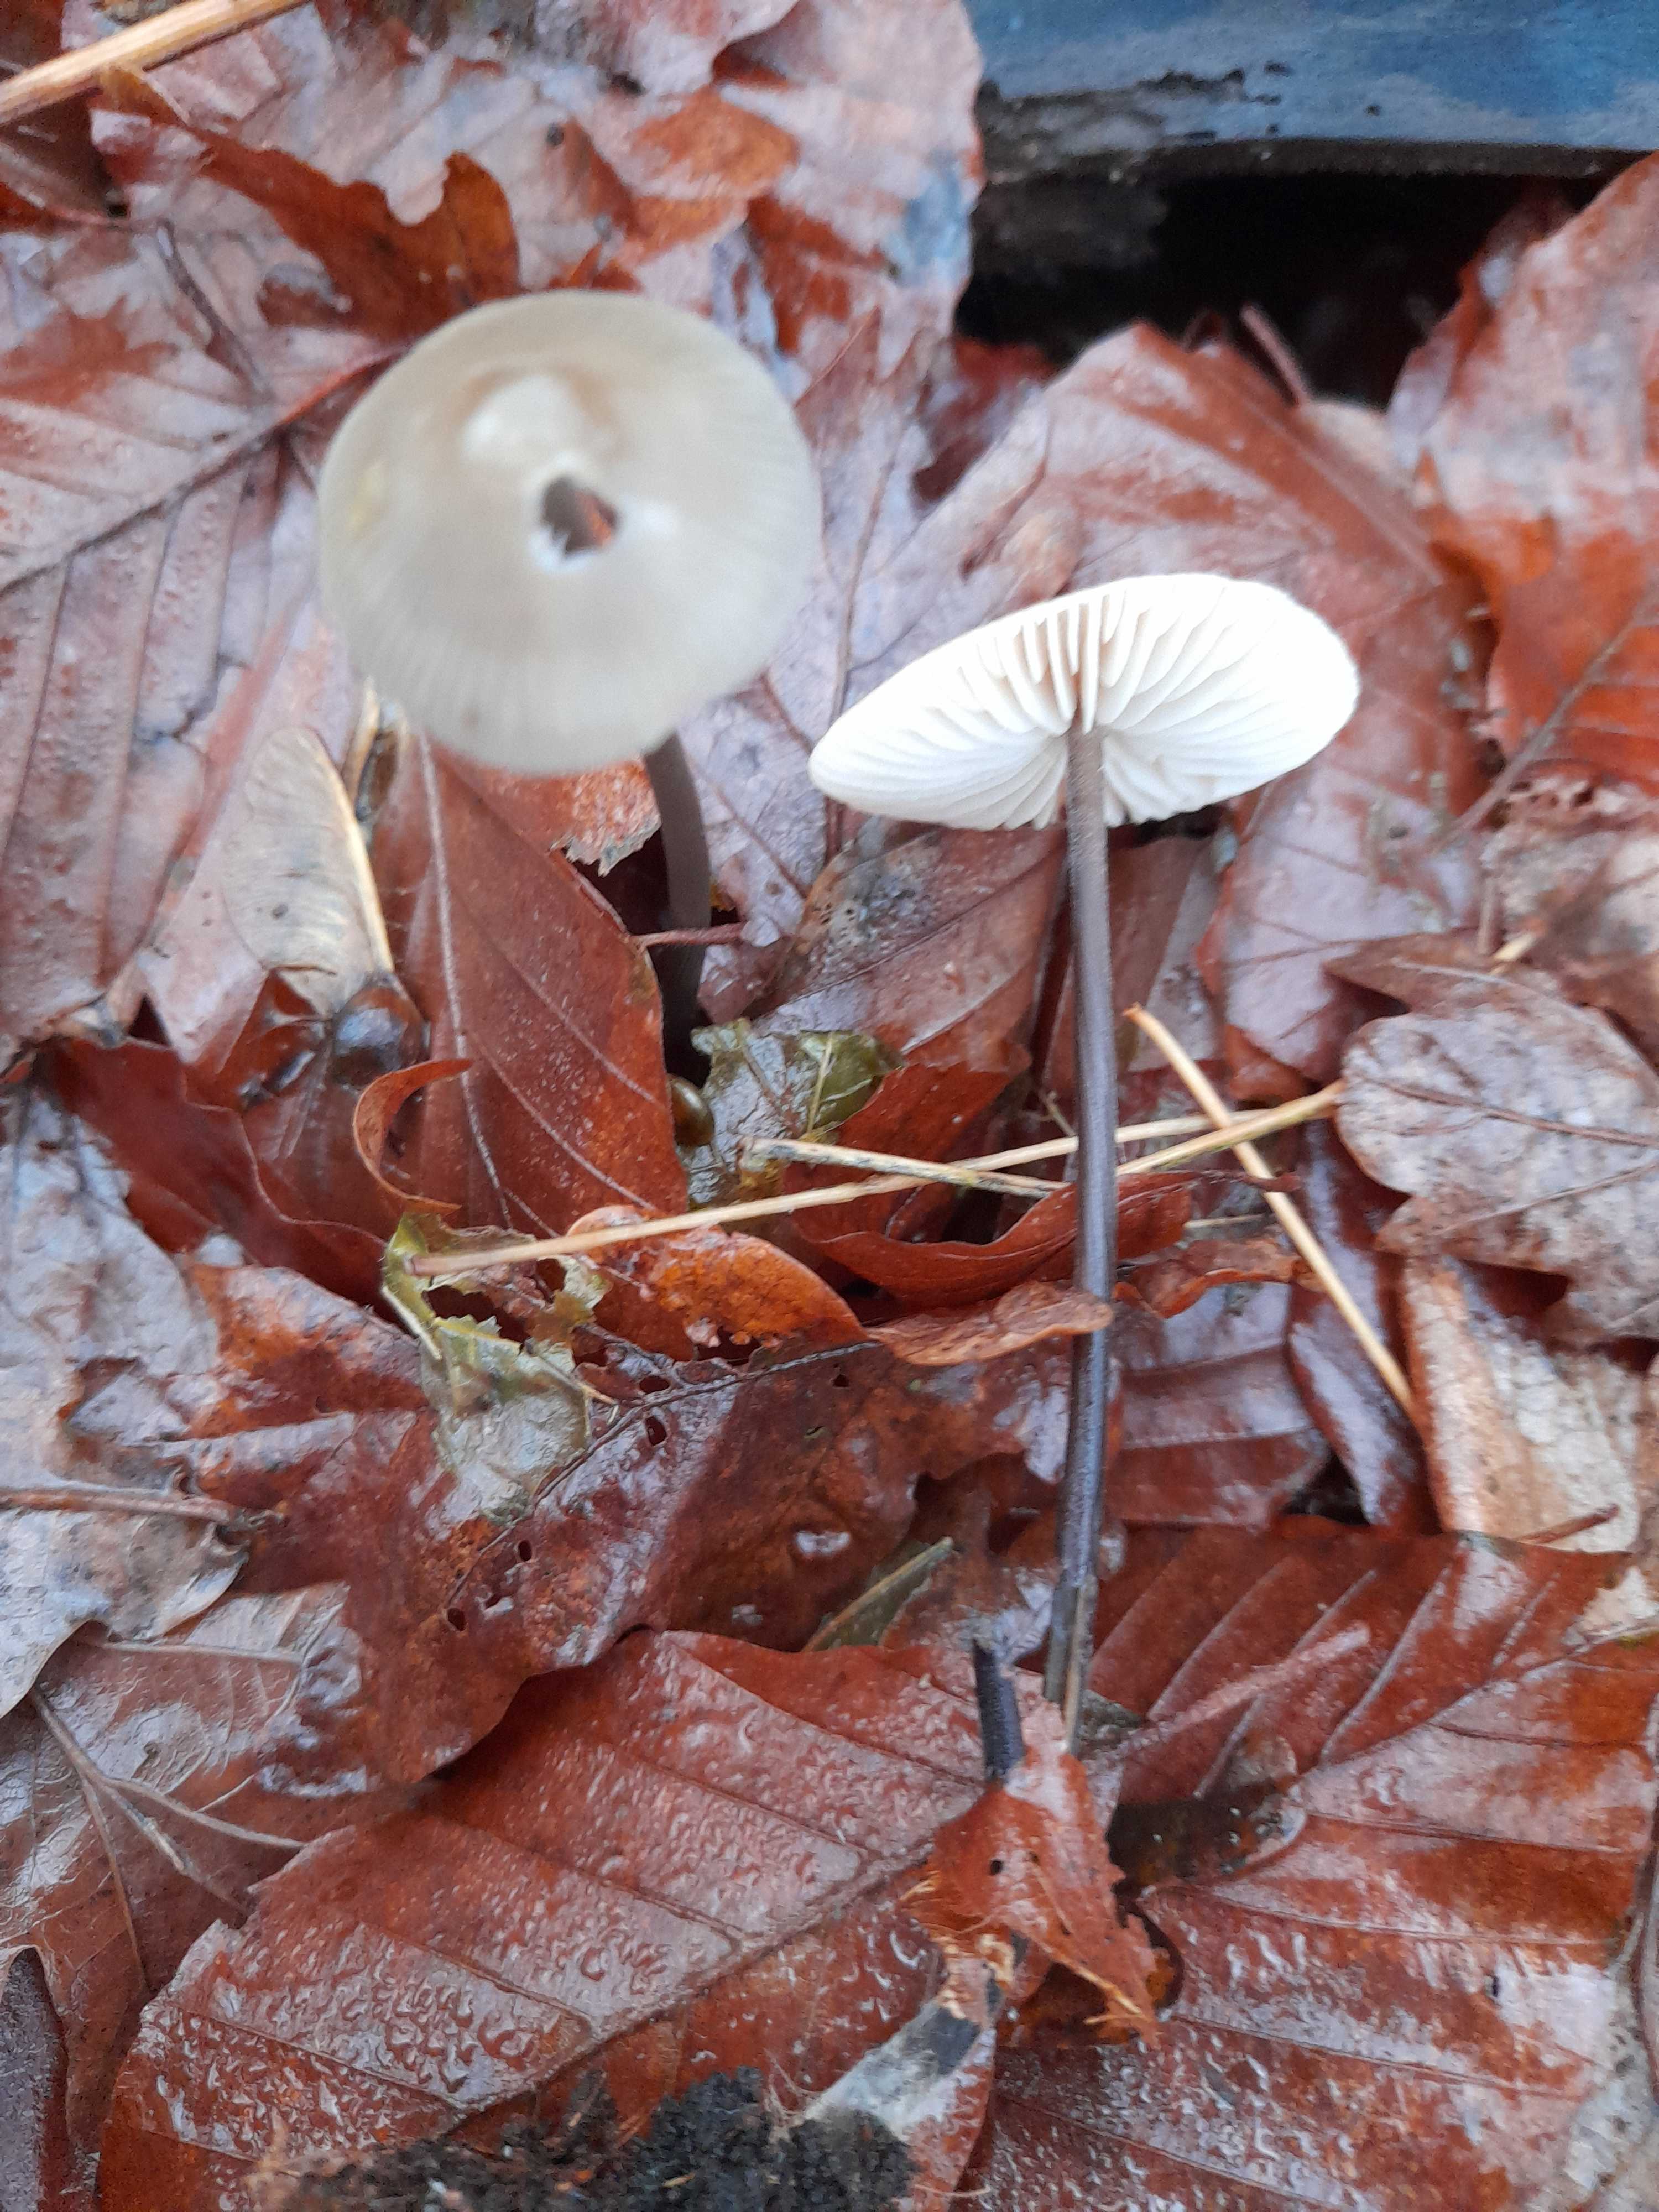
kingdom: Fungi
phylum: Basidiomycota
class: Agaricomycetes
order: Agaricales
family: Omphalotaceae
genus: Mycetinis
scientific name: Mycetinis alliaceus
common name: stor løghat
